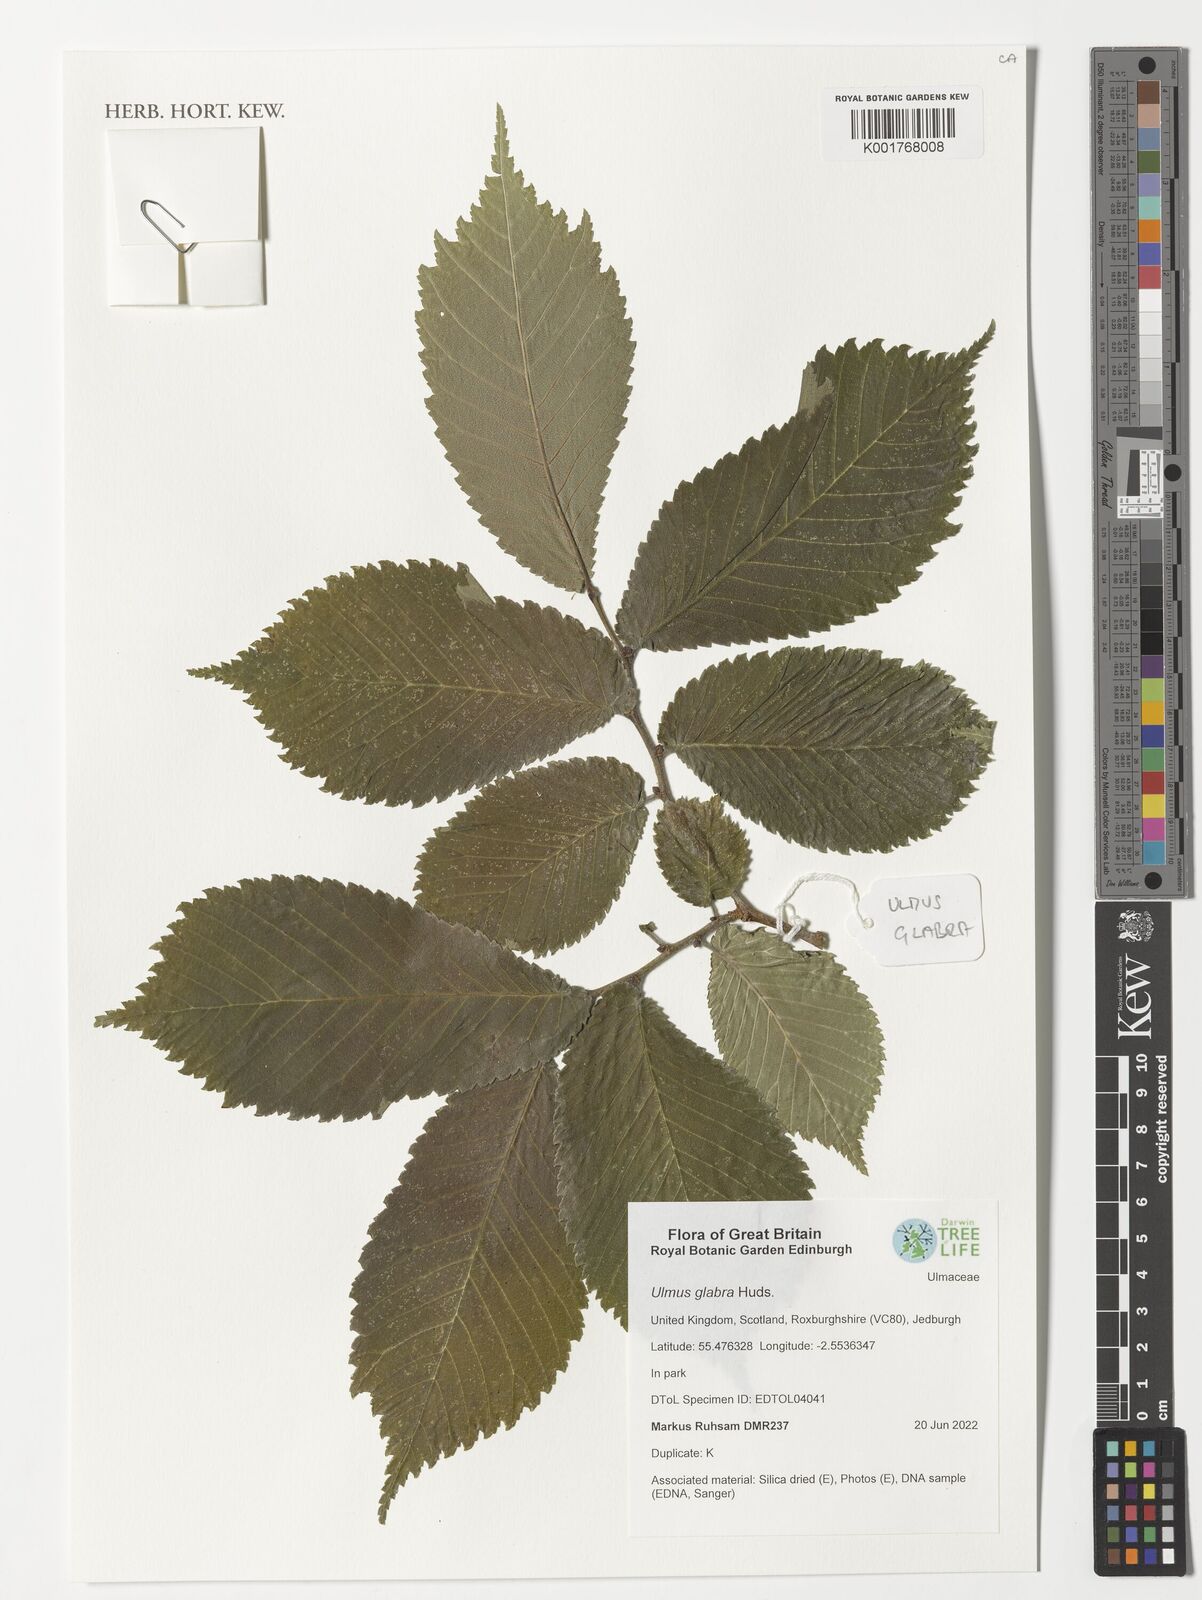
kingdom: Plantae
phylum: Tracheophyta
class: Magnoliopsida
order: Rosales
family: Ulmaceae
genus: Ulmus
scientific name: Ulmus glabra
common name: Wych elm
